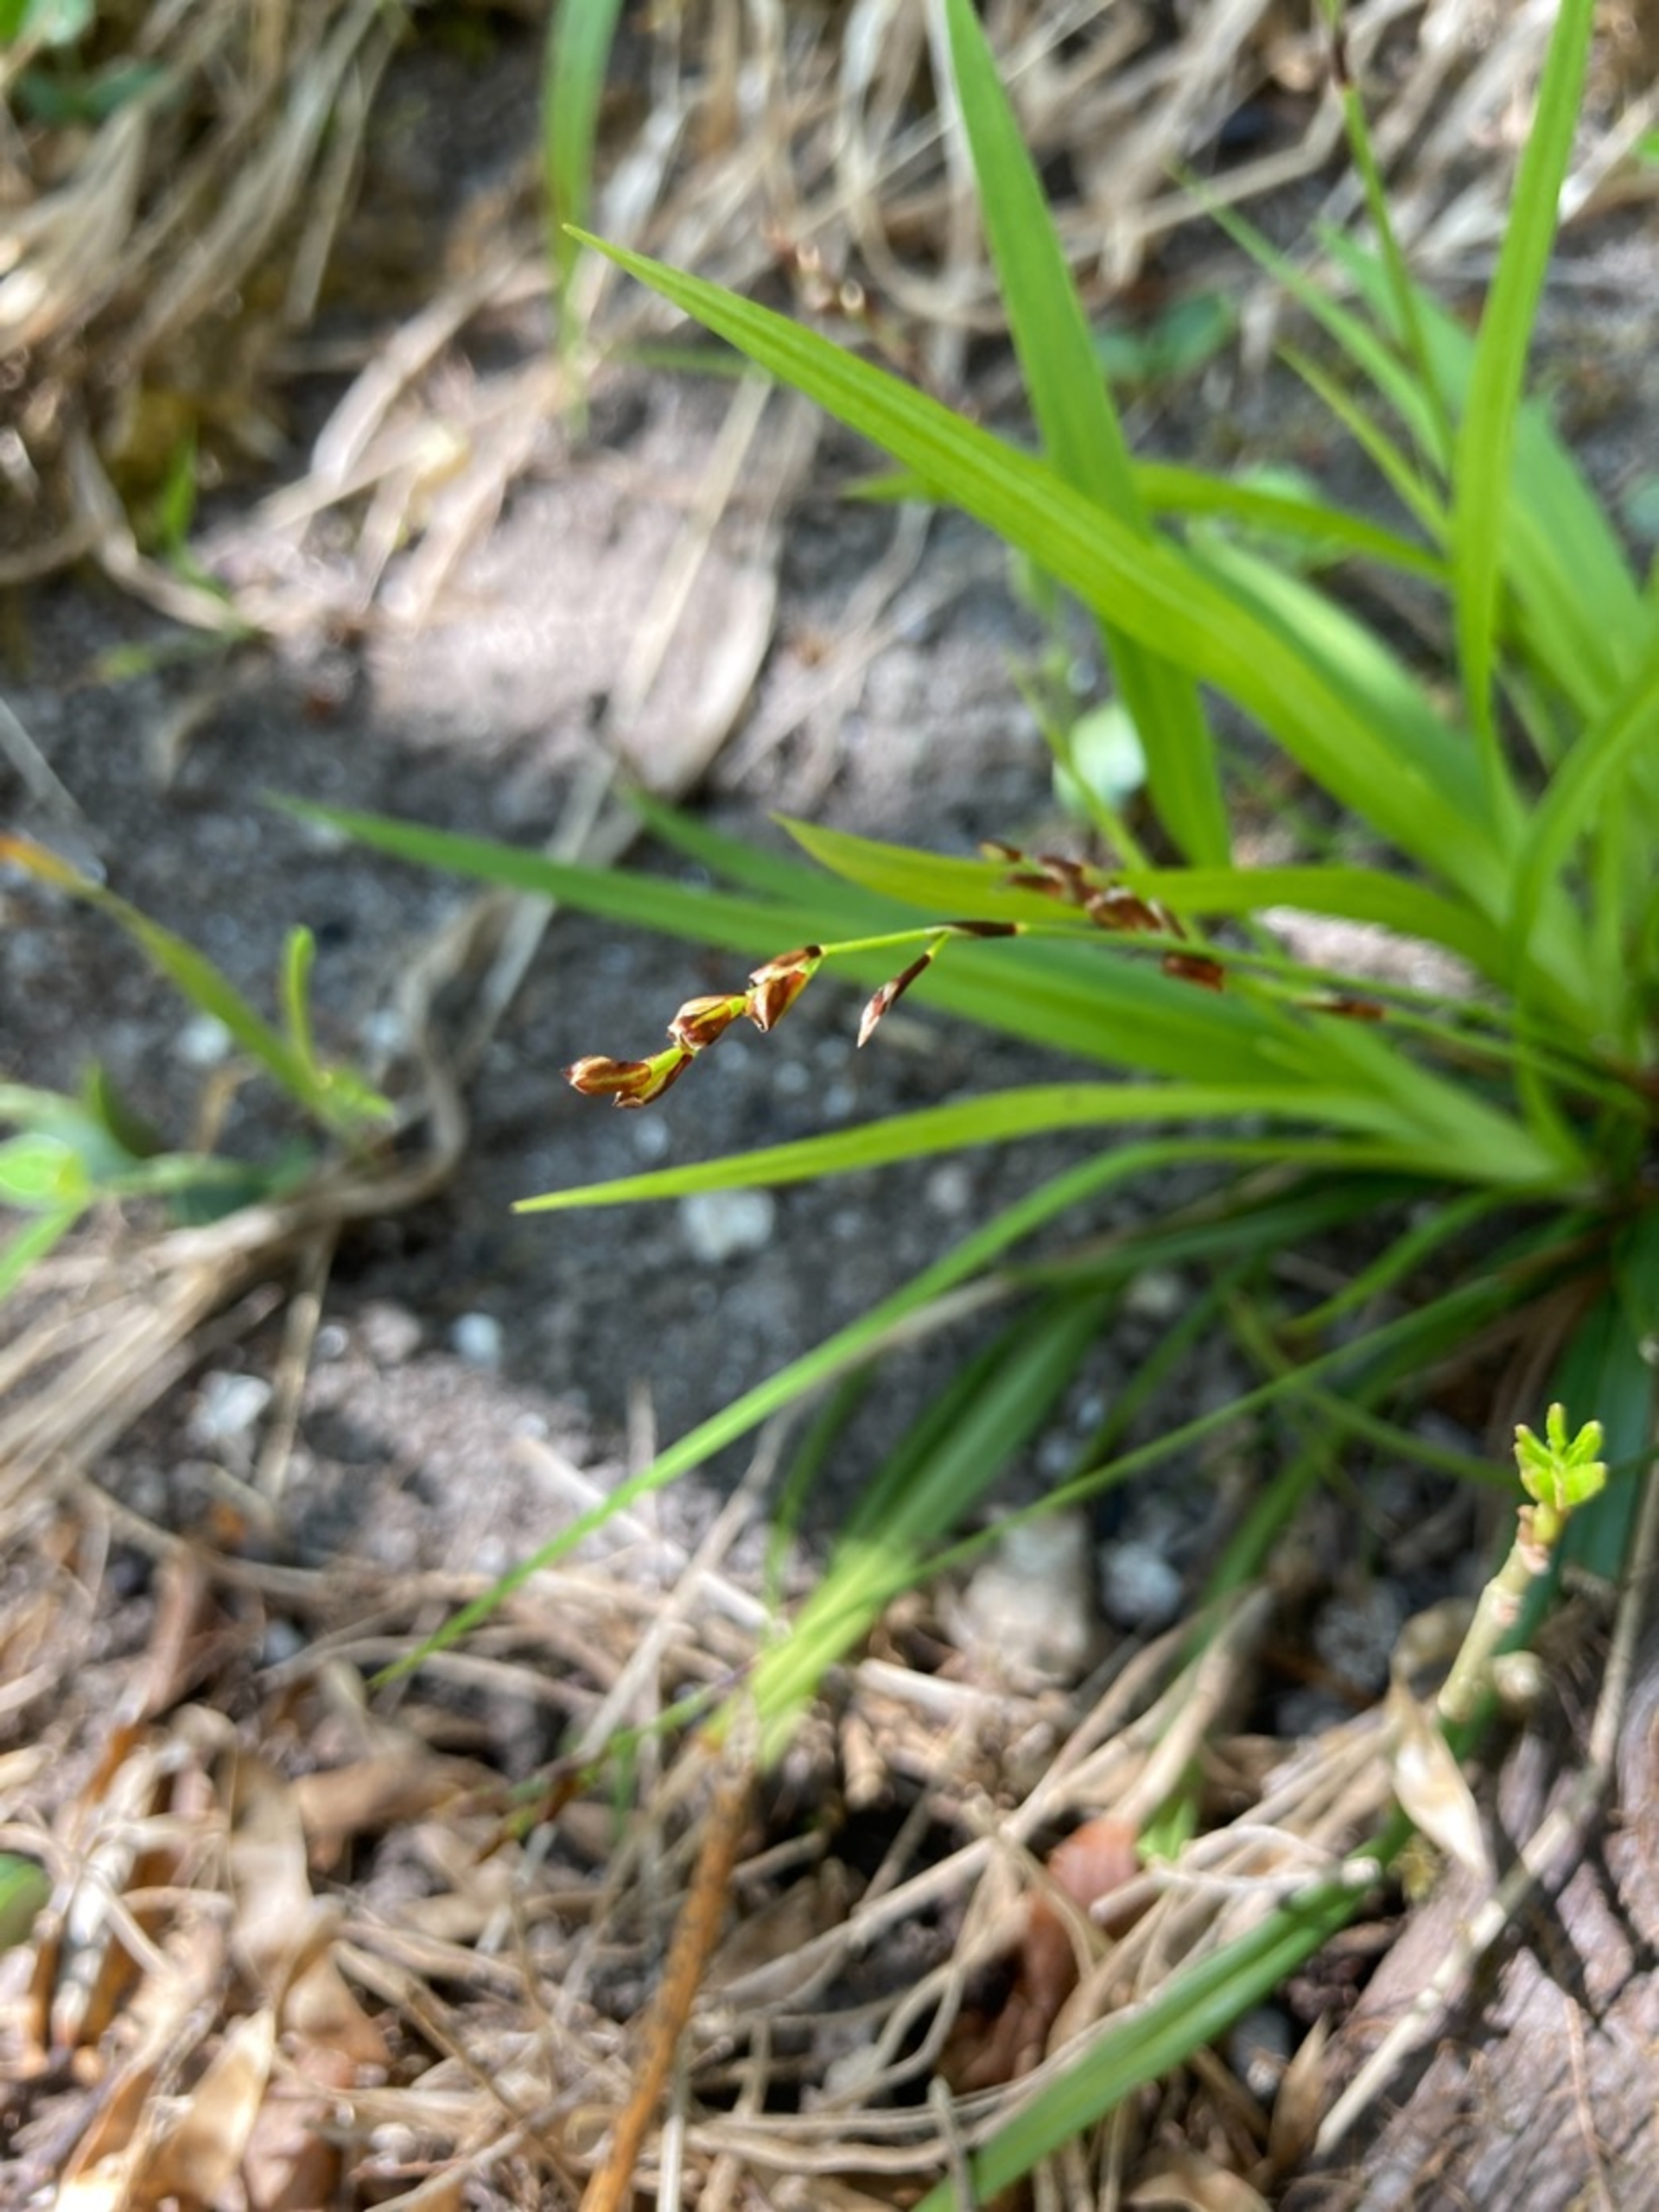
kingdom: Plantae
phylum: Tracheophyta
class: Liliopsida
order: Poales
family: Cyperaceae
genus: Carex
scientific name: Carex digitata
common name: Finger-star
